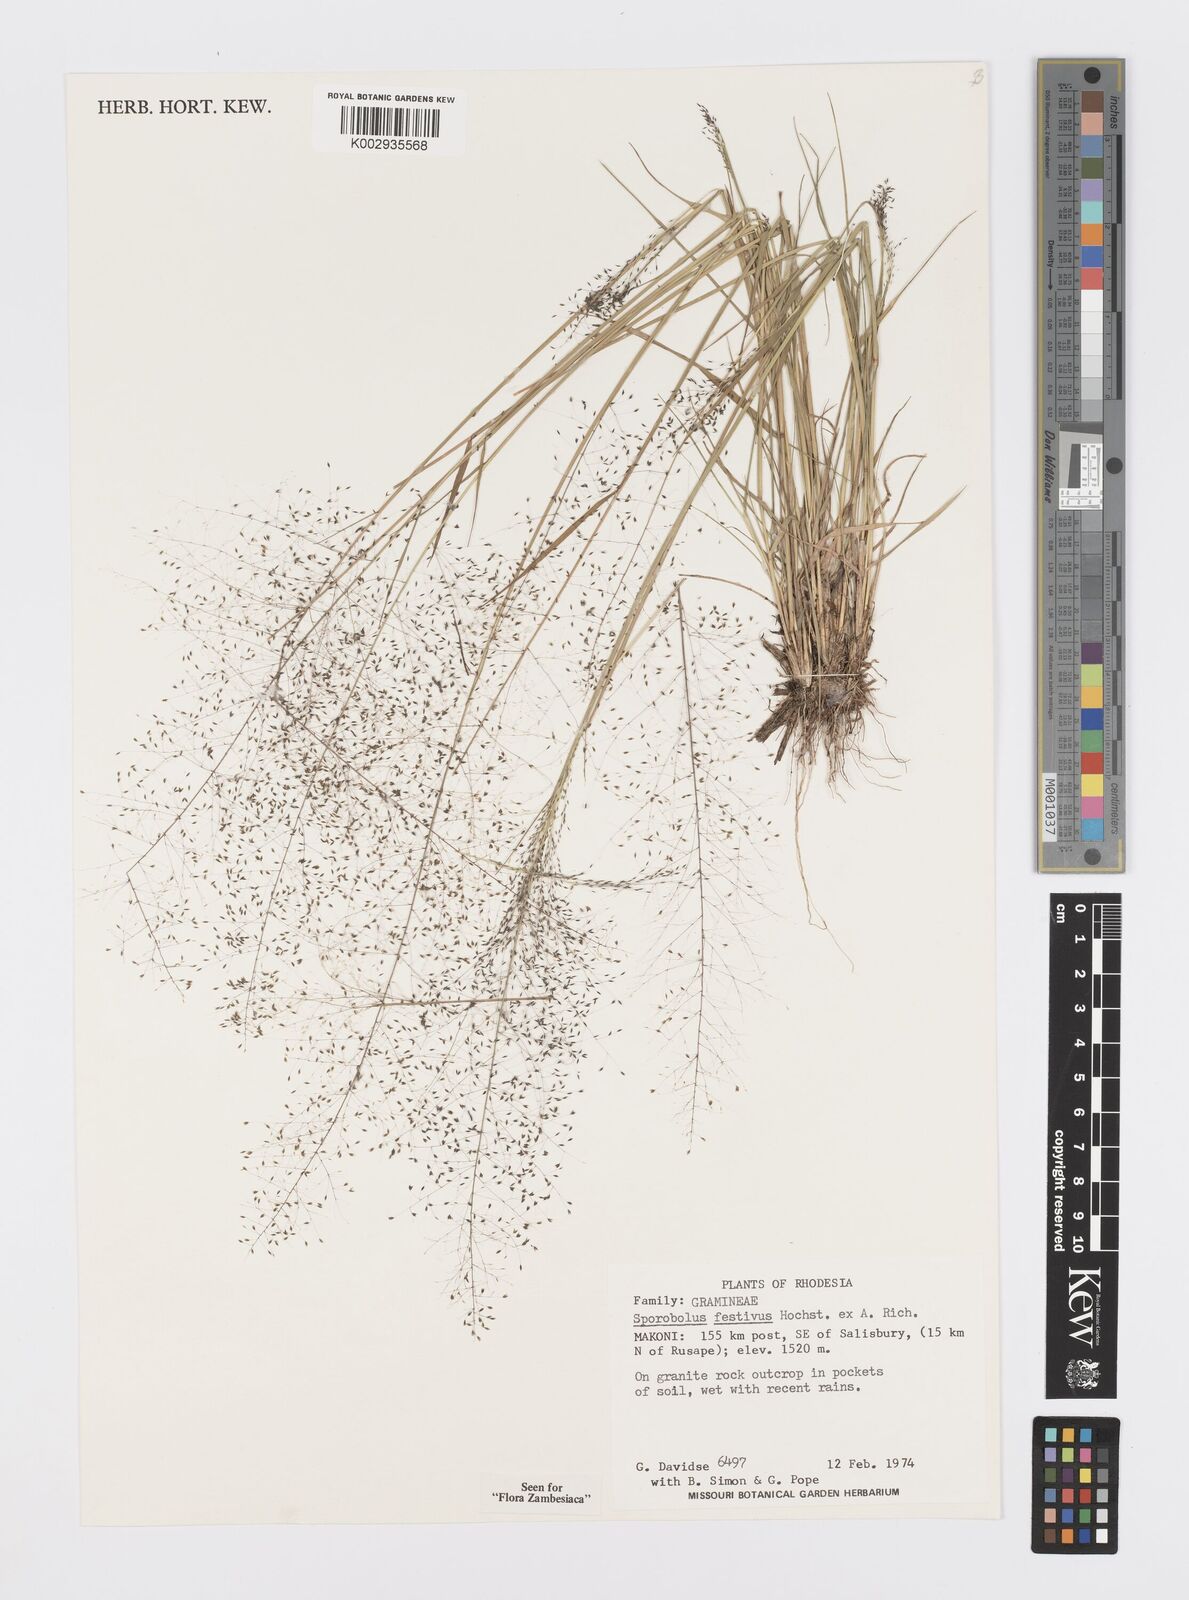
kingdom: Plantae
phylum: Tracheophyta
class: Liliopsida
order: Poales
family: Poaceae
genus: Sporobolus
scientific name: Sporobolus festivus
